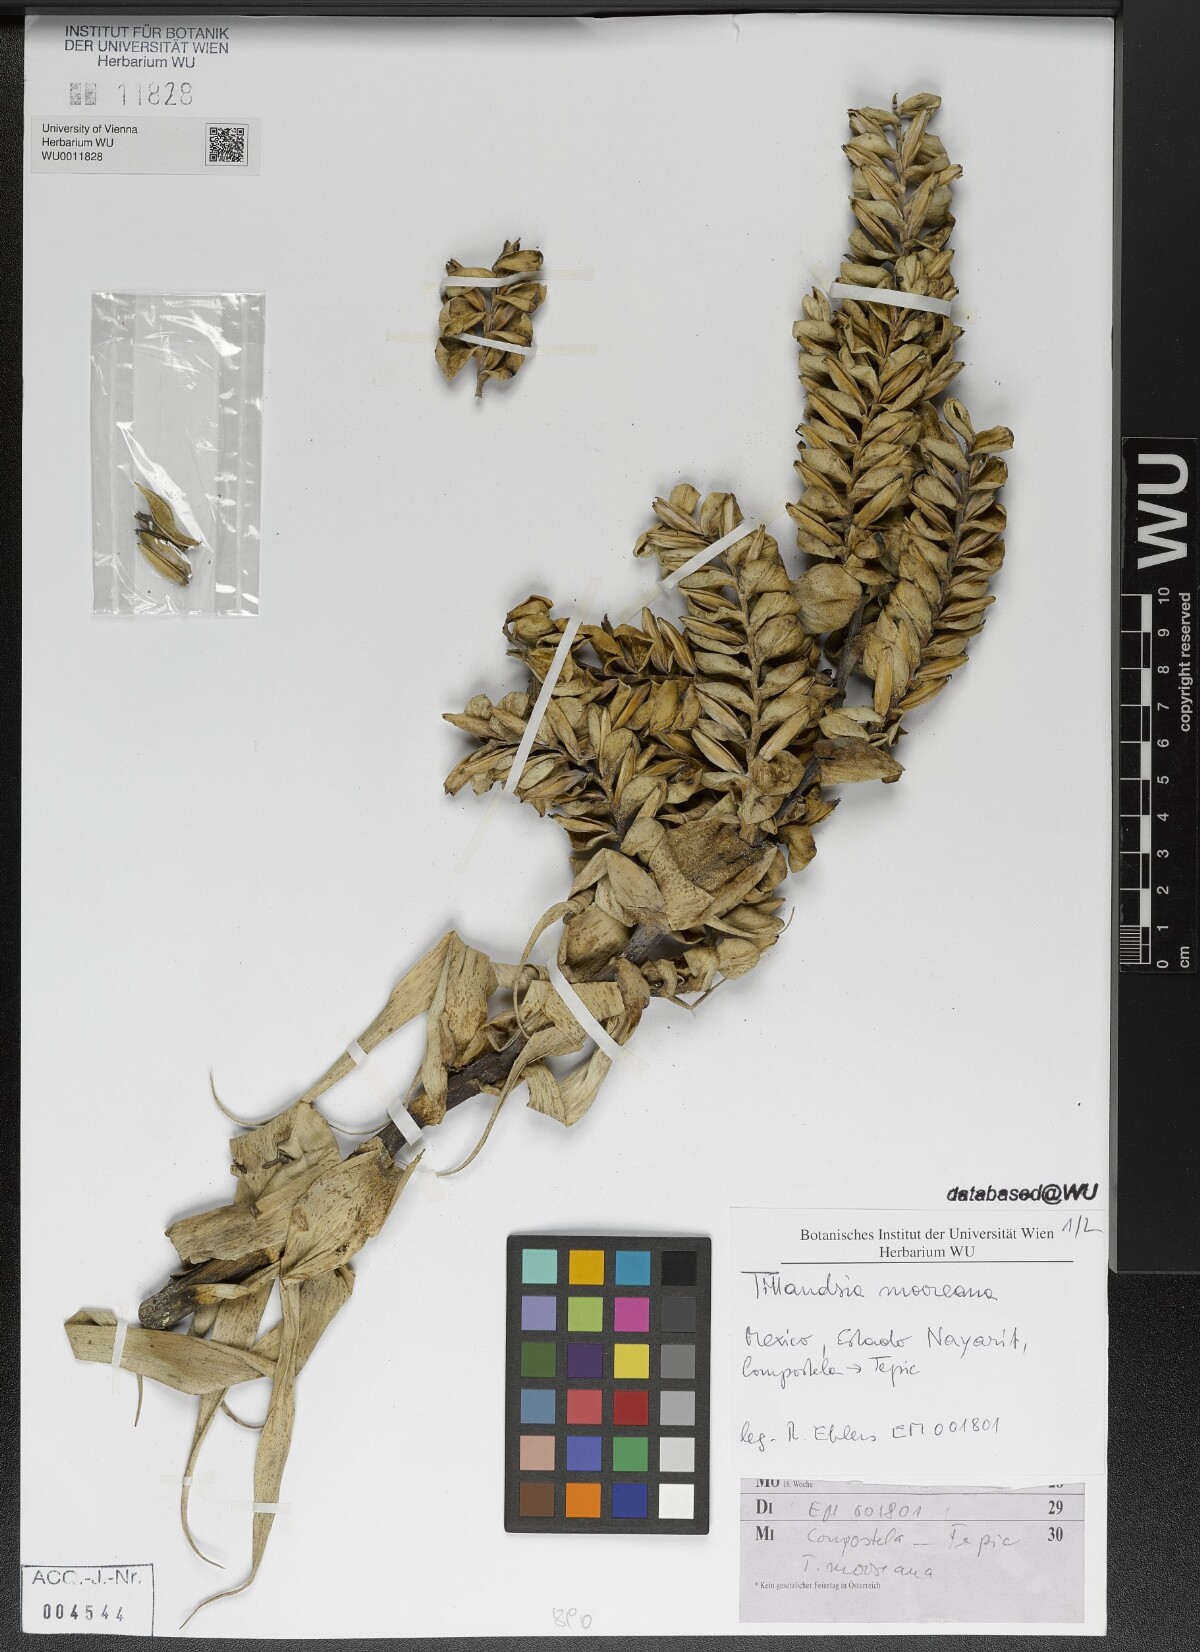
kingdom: Plantae
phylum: Tracheophyta
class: Liliopsida
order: Poales
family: Bromeliaceae
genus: Tillandsia
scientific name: Tillandsia mooreana
